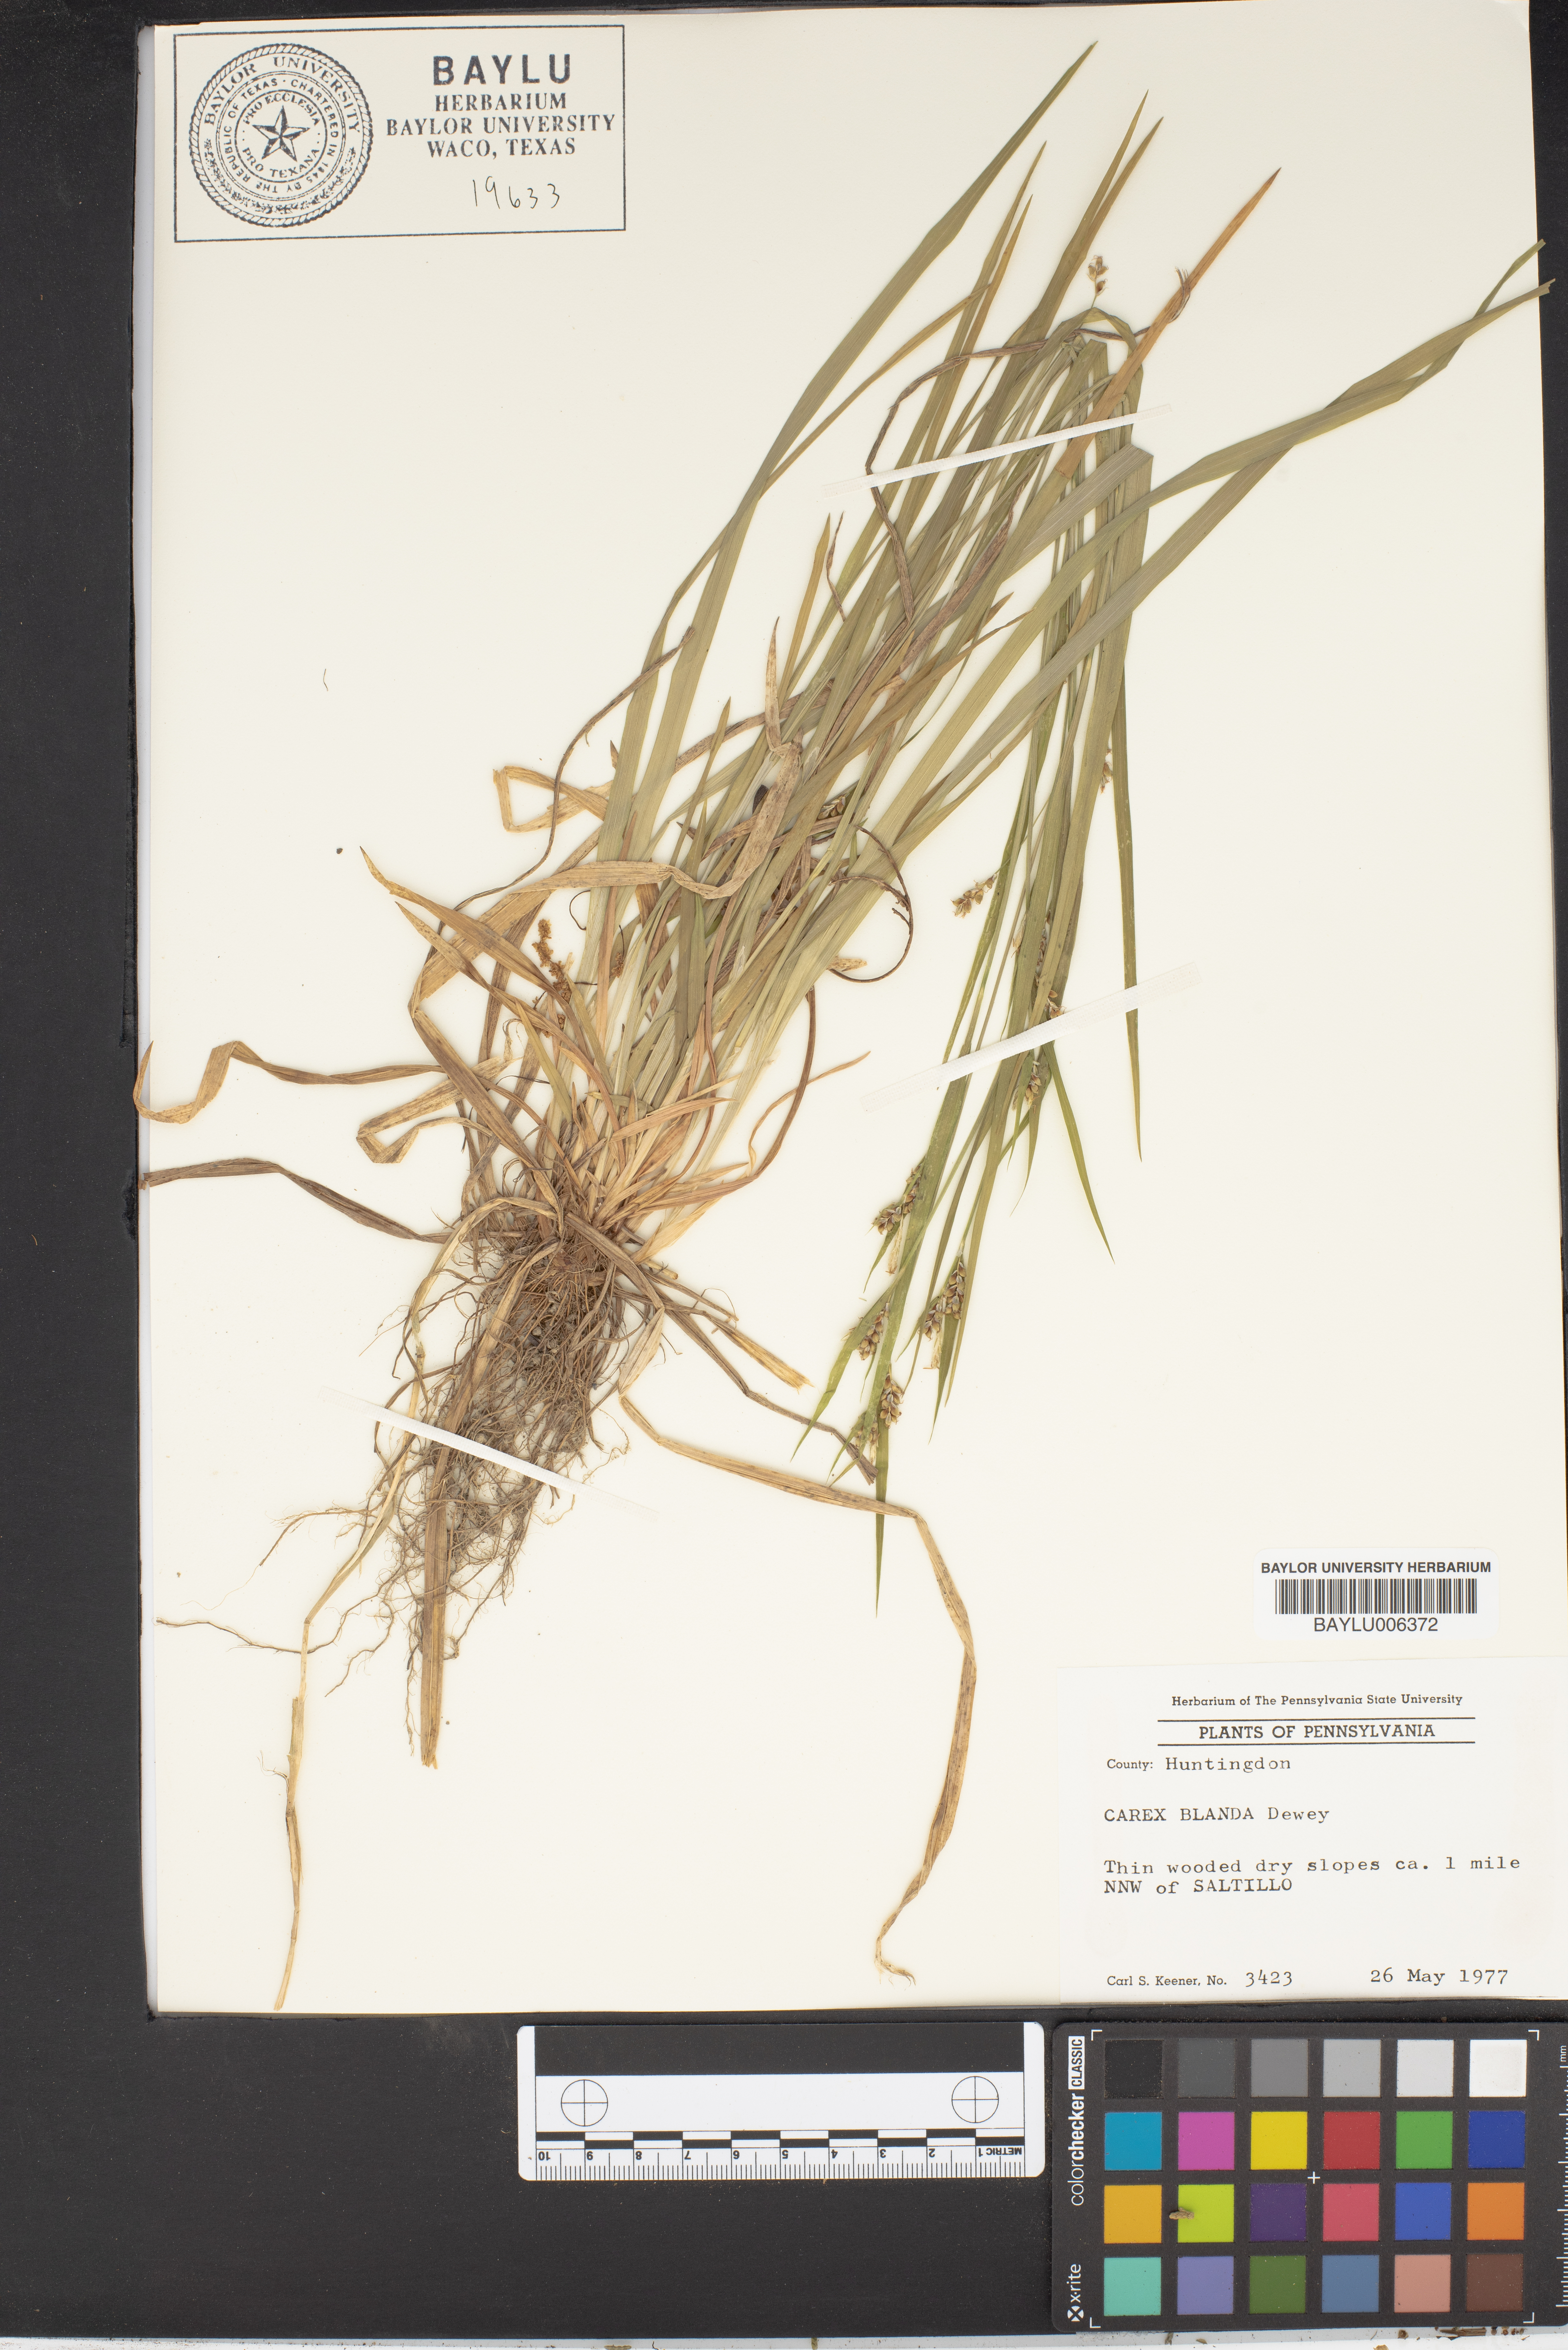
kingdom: Plantae
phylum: Tracheophyta
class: Liliopsida
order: Poales
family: Cyperaceae
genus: Carex
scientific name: Carex blanda
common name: Bland sedge
